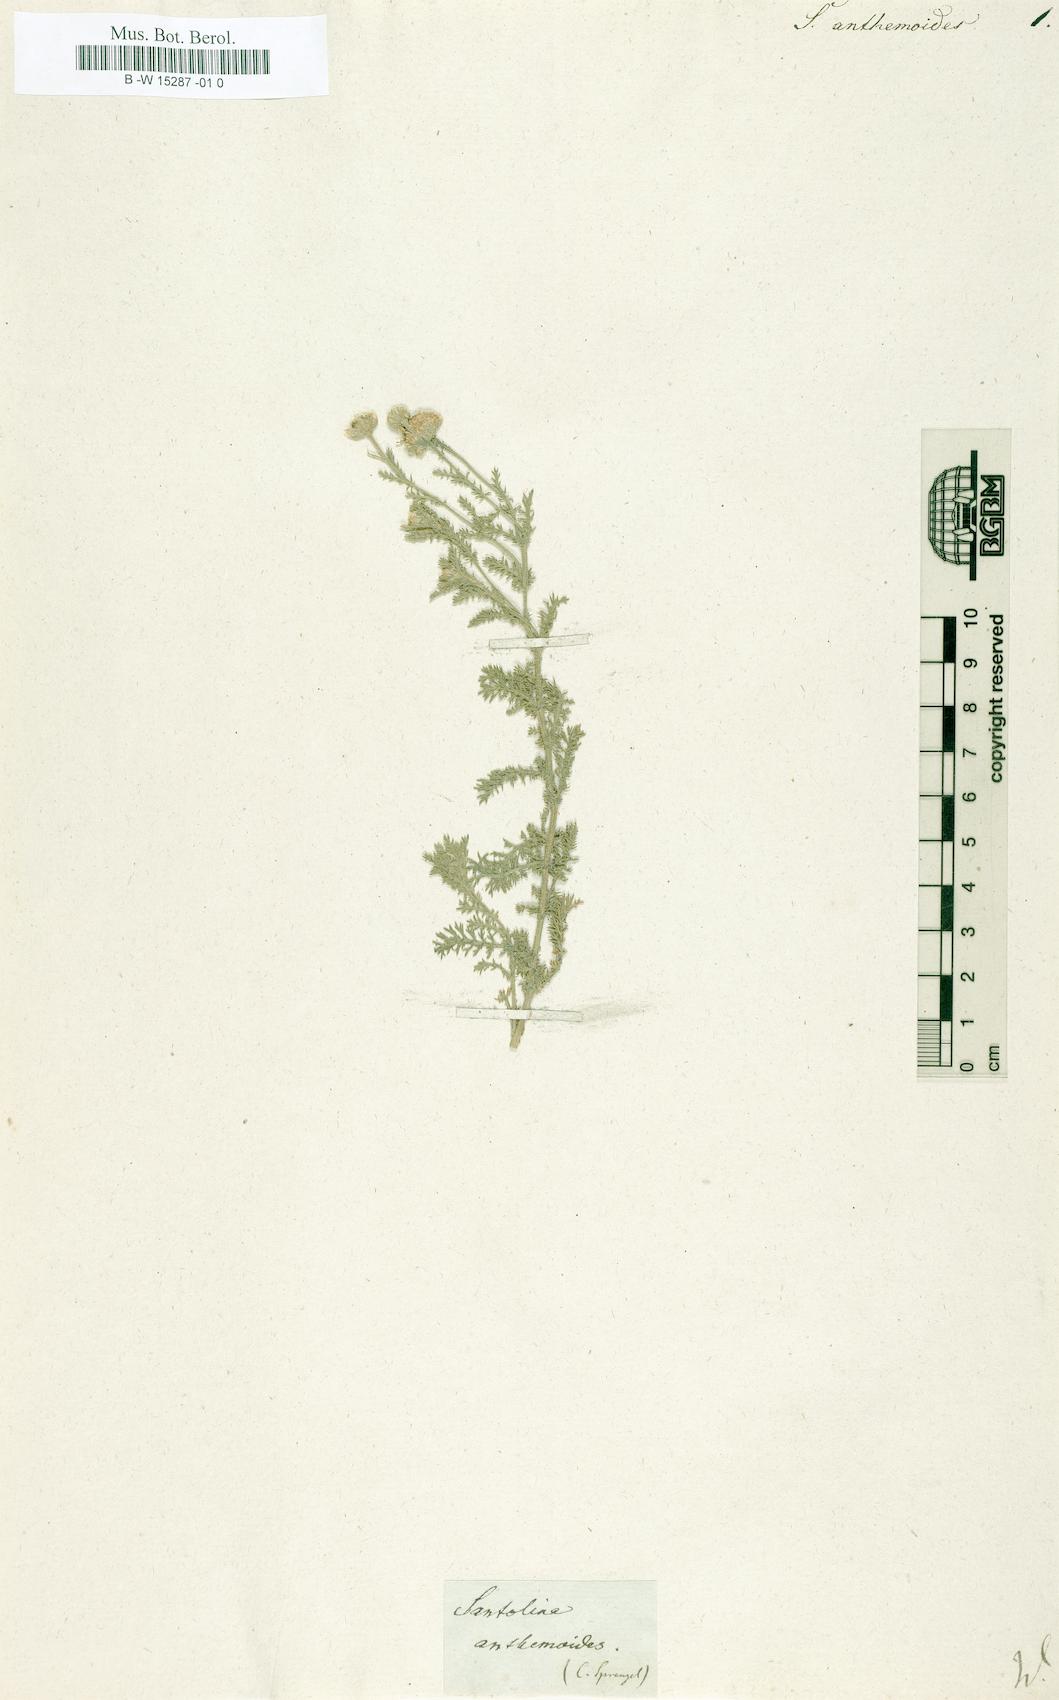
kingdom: Plantae
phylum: Tracheophyta
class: Magnoliopsida
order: Asterales
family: Asteraceae
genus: Achillea
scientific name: Achillea cretica
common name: Chamomile-leaved lavender-cotton
